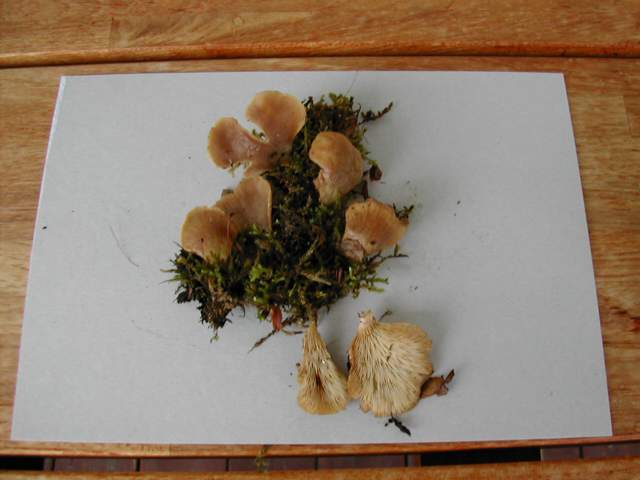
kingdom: Fungi
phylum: Basidiomycota
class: Agaricomycetes
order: Agaricales
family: Pleurotaceae
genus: Hohenbuehelia
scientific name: Hohenbuehelia auriscalpium
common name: spatel-filthat
